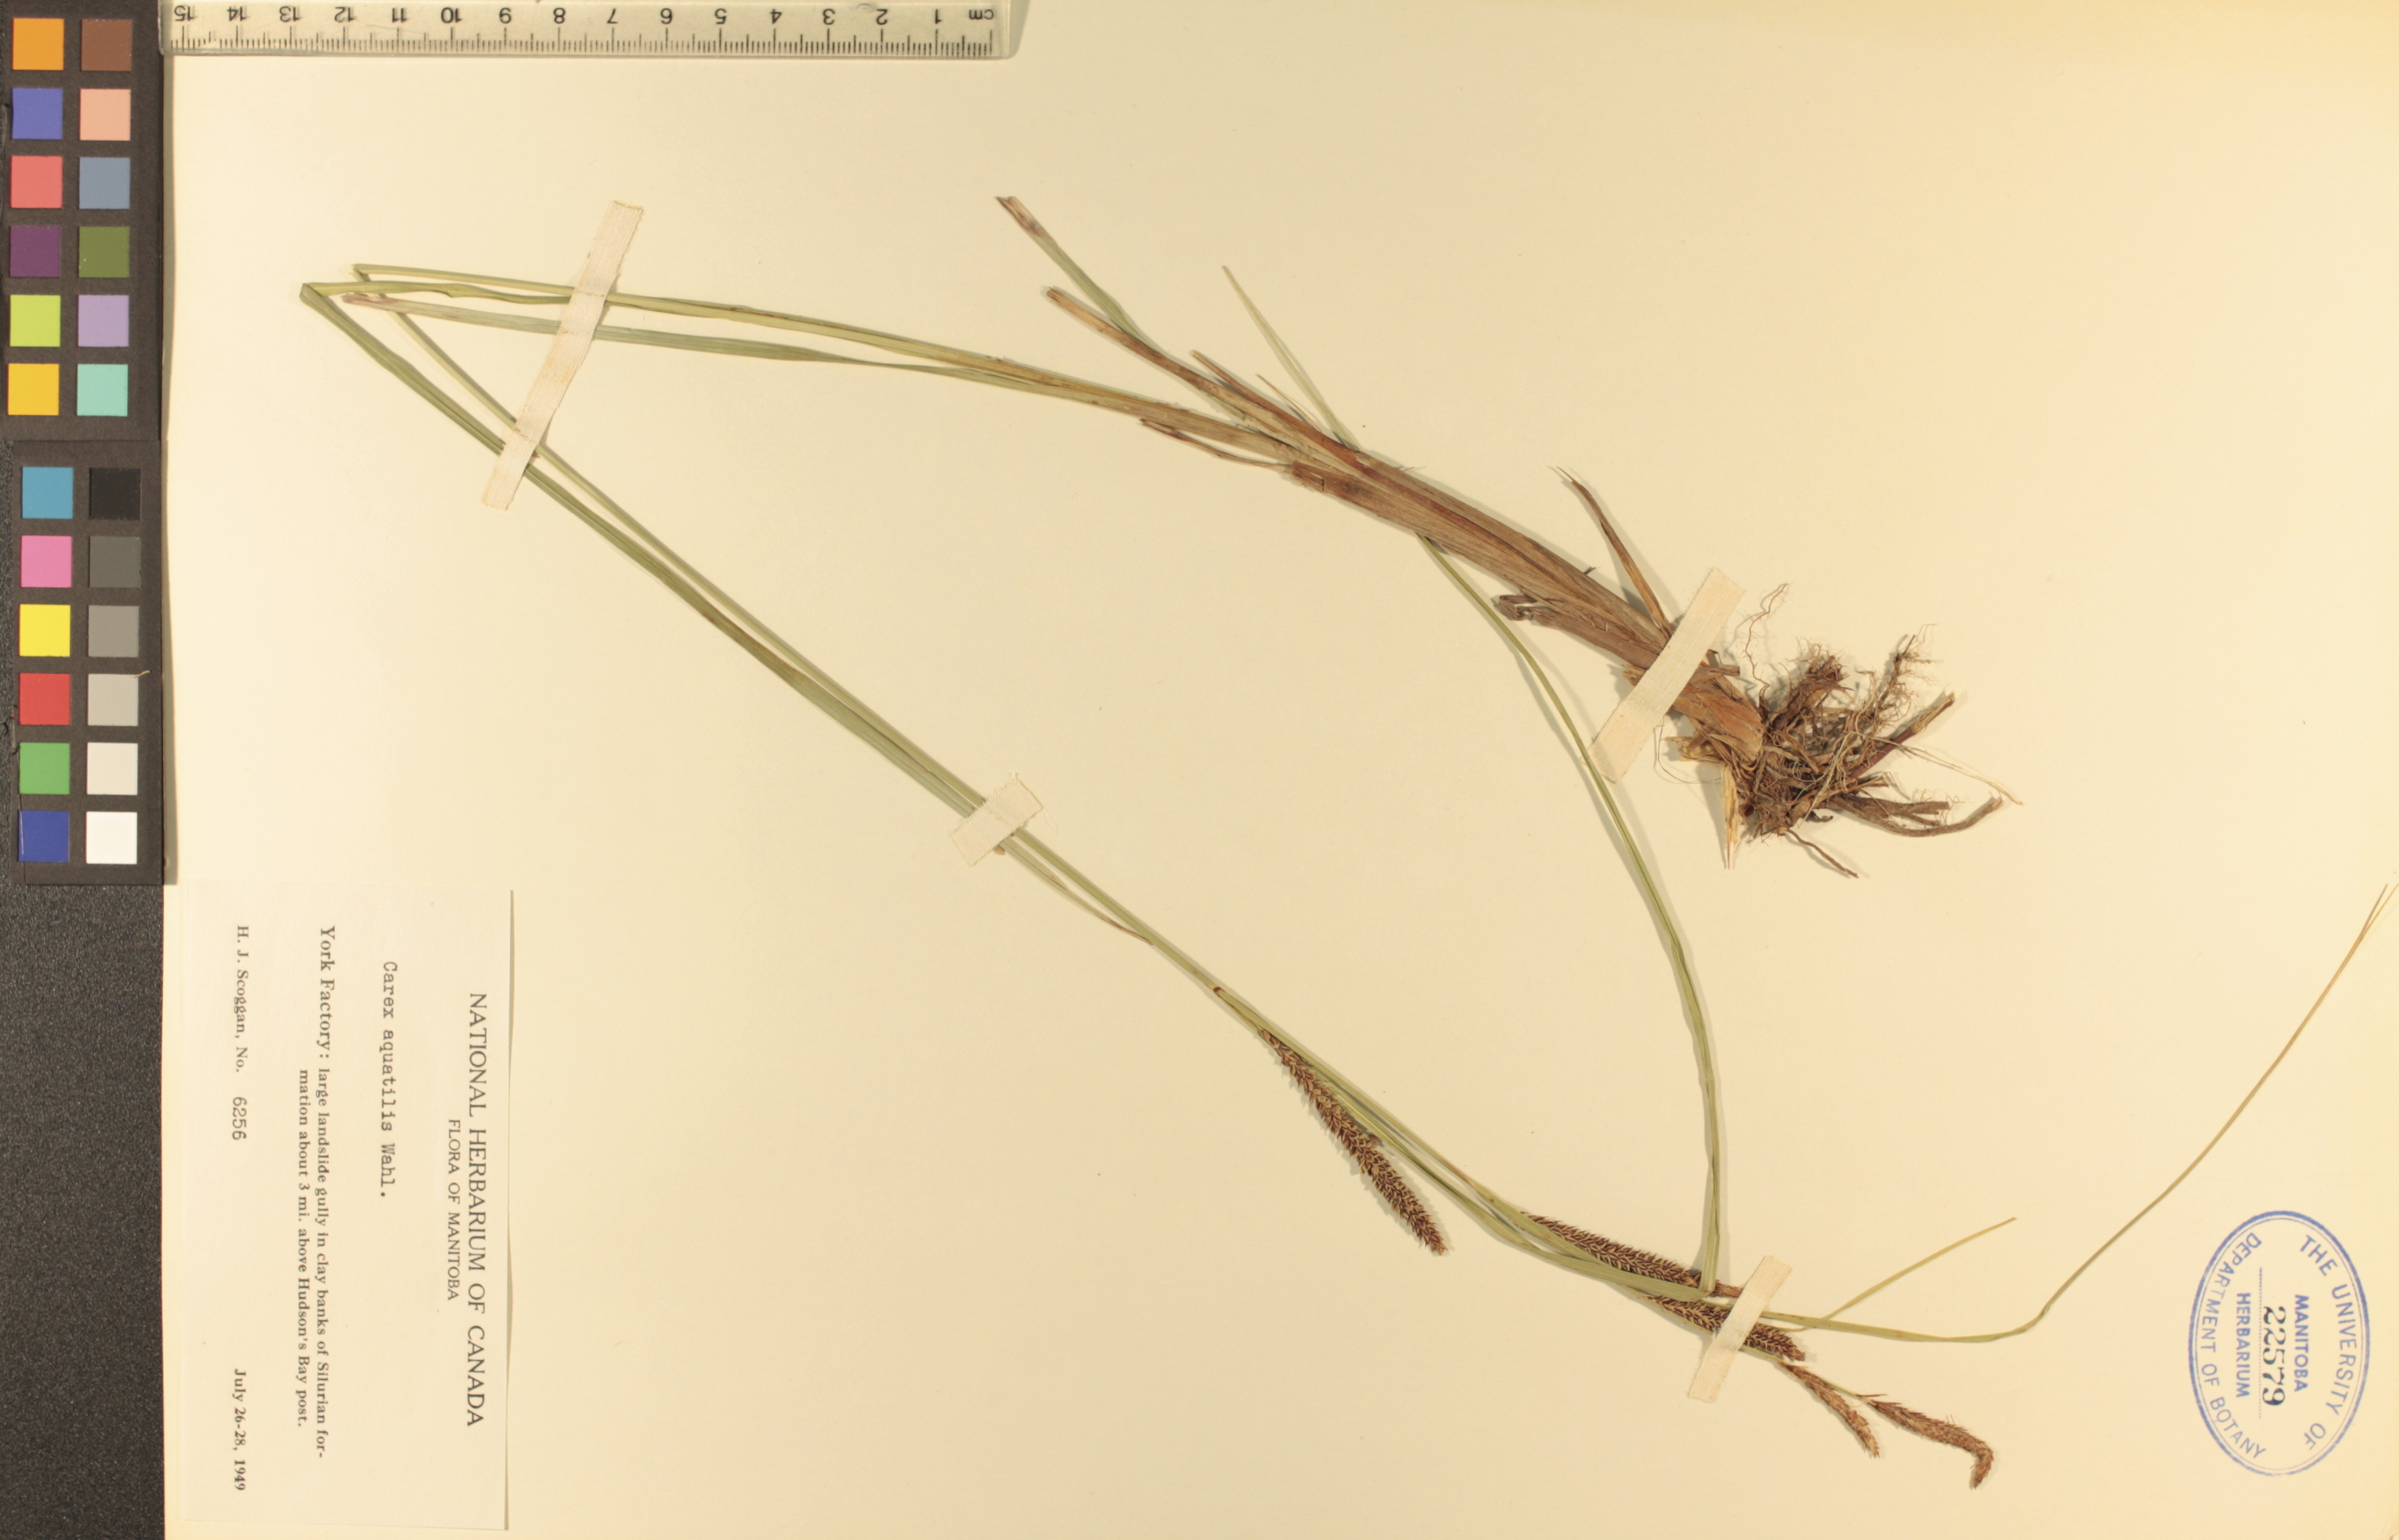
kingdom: Plantae
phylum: Tracheophyta
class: Liliopsida
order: Poales
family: Cyperaceae
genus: Carex
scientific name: Carex aquatilis
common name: Water sedge
